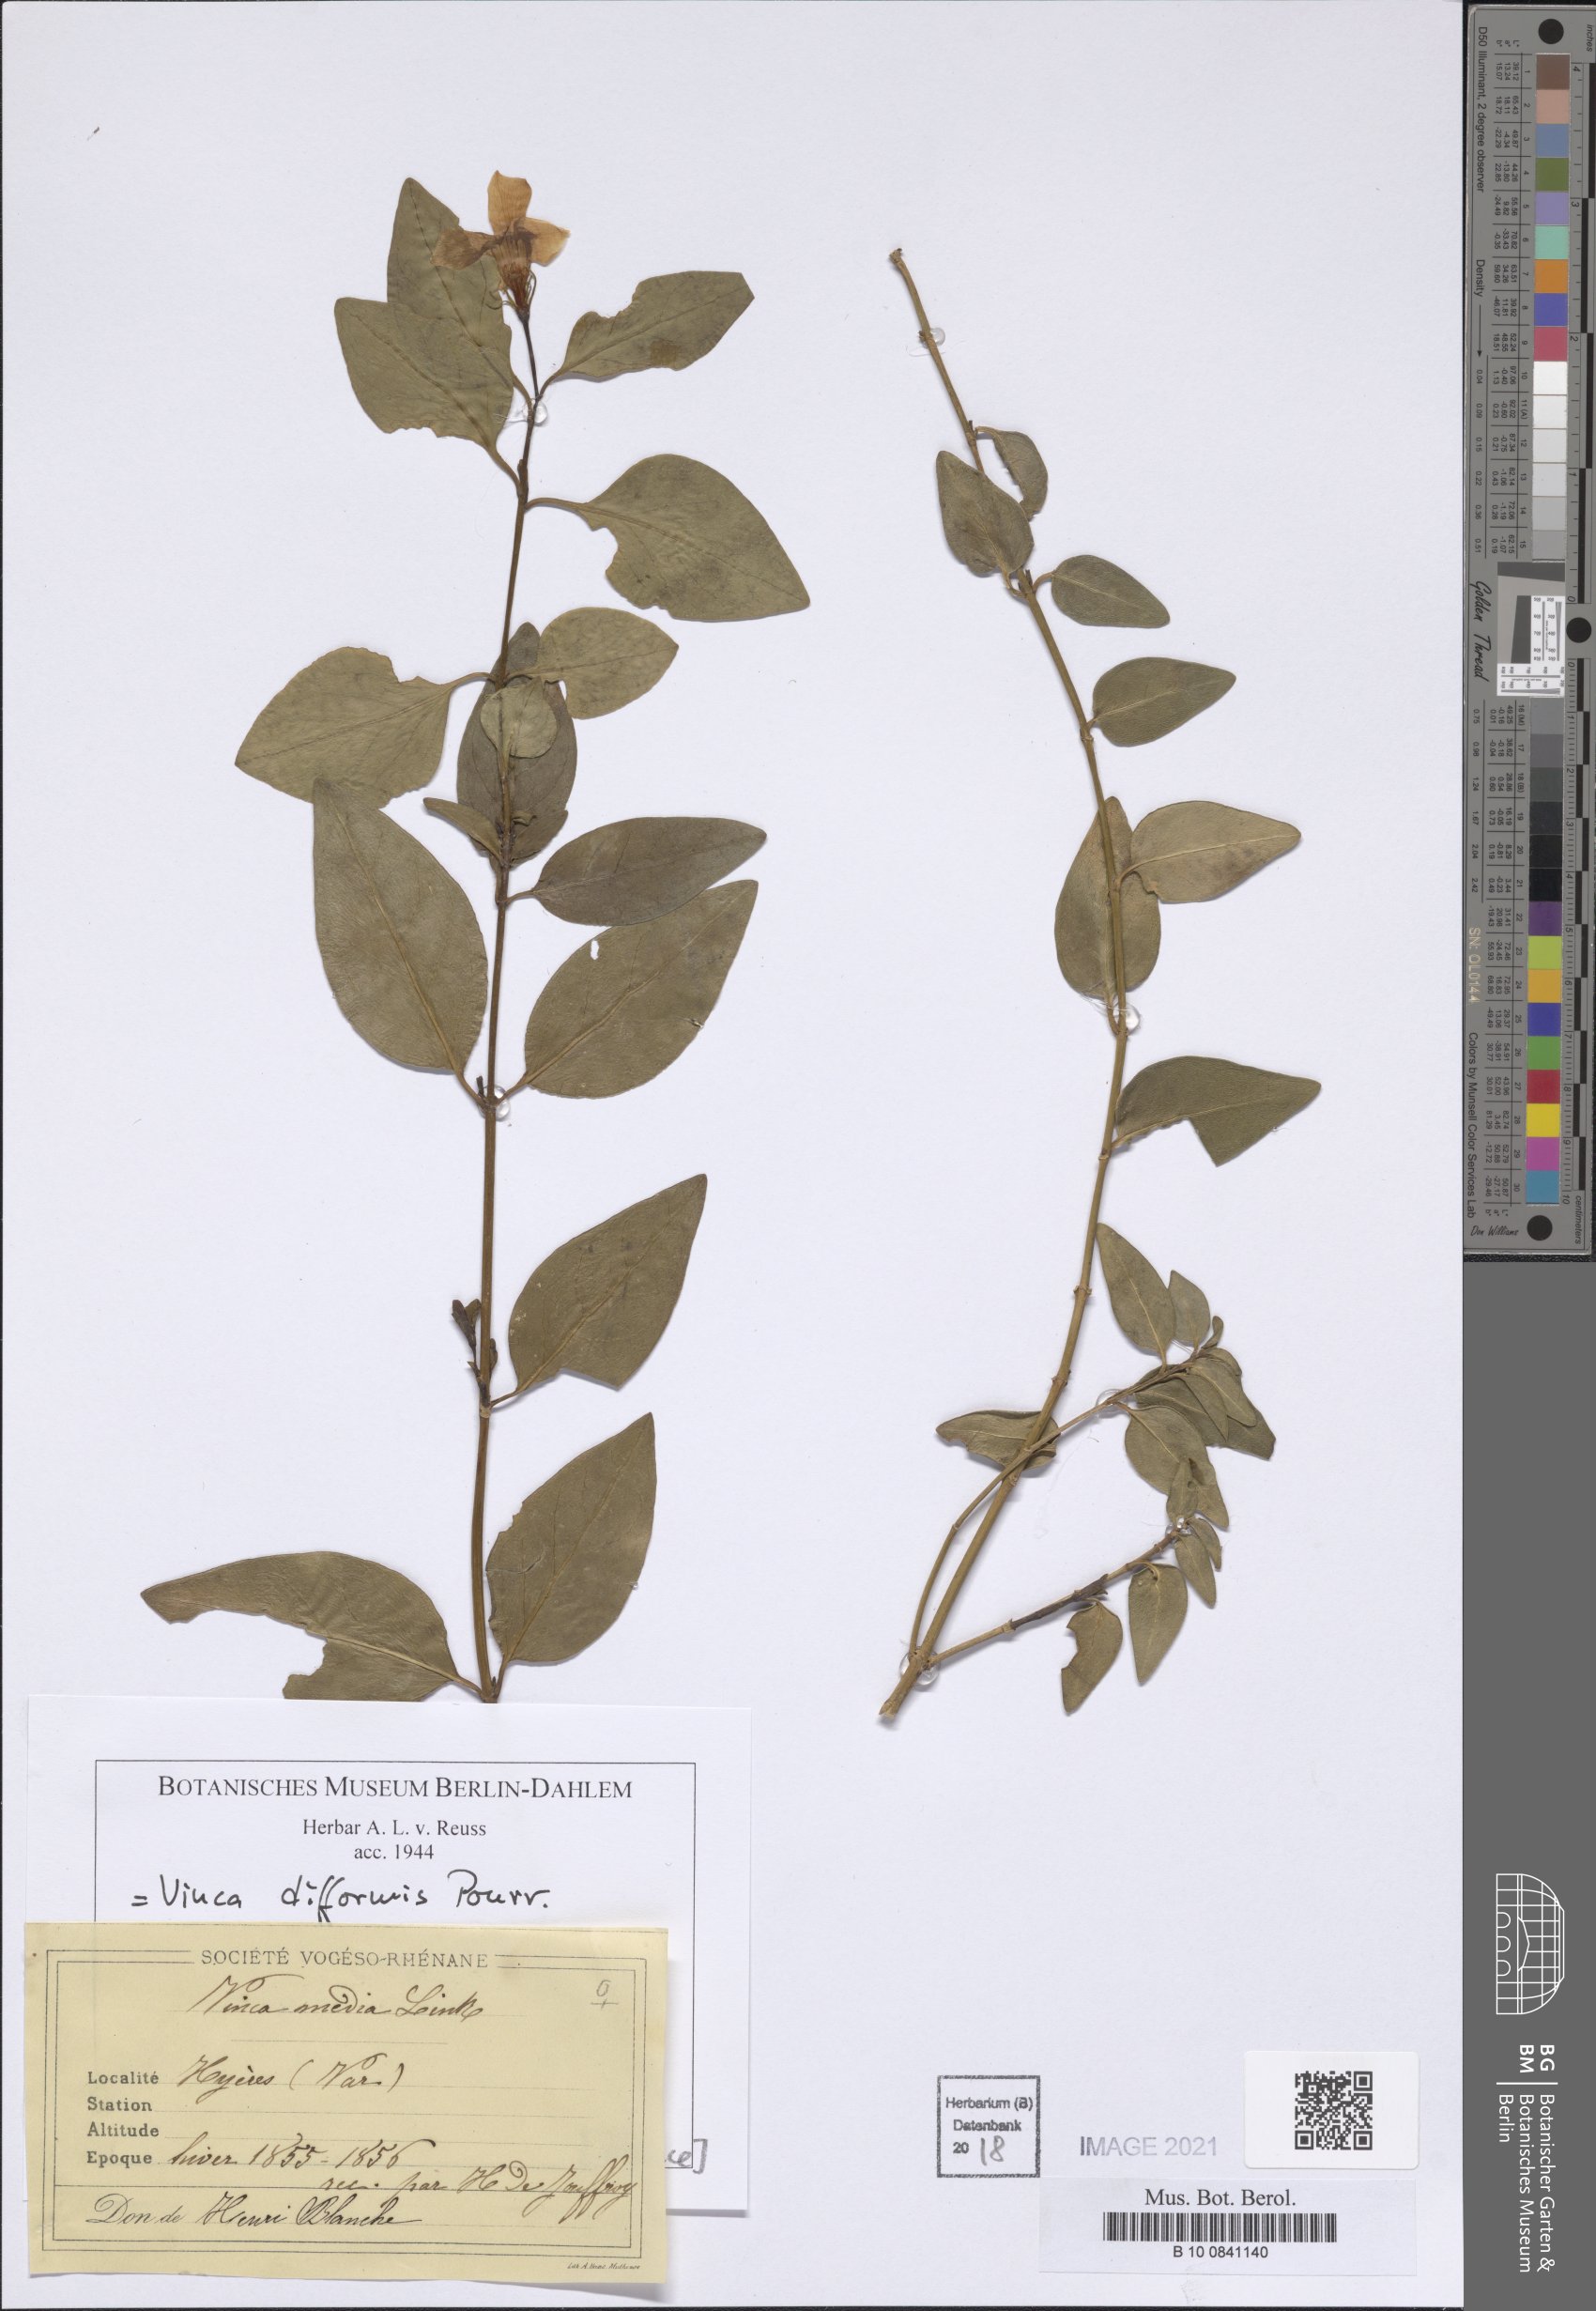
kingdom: Plantae
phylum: Tracheophyta
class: Magnoliopsida
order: Gentianales
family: Apocynaceae
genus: Vinca
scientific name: Vinca difformis
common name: Intermediate periwinkle
